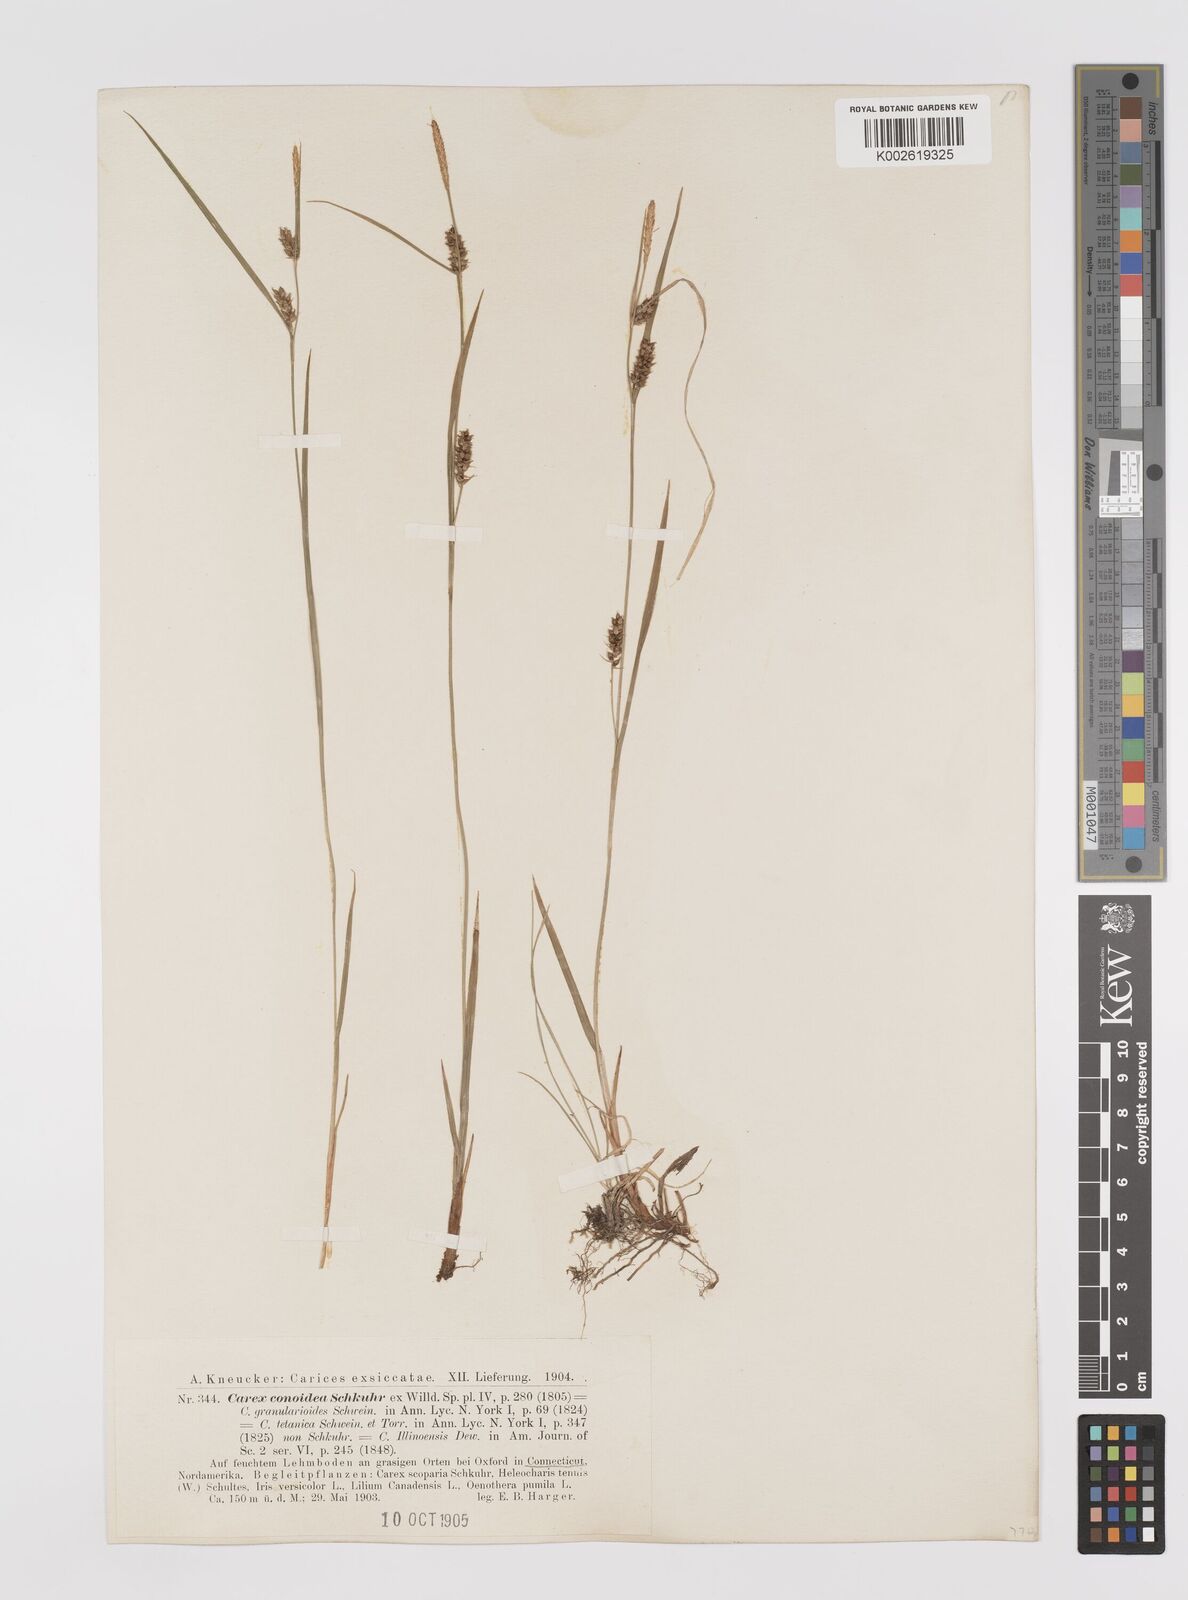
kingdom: Plantae
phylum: Tracheophyta
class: Liliopsida
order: Poales
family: Cyperaceae
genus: Carex
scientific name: Carex conoidea
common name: Cone shaped sedge
